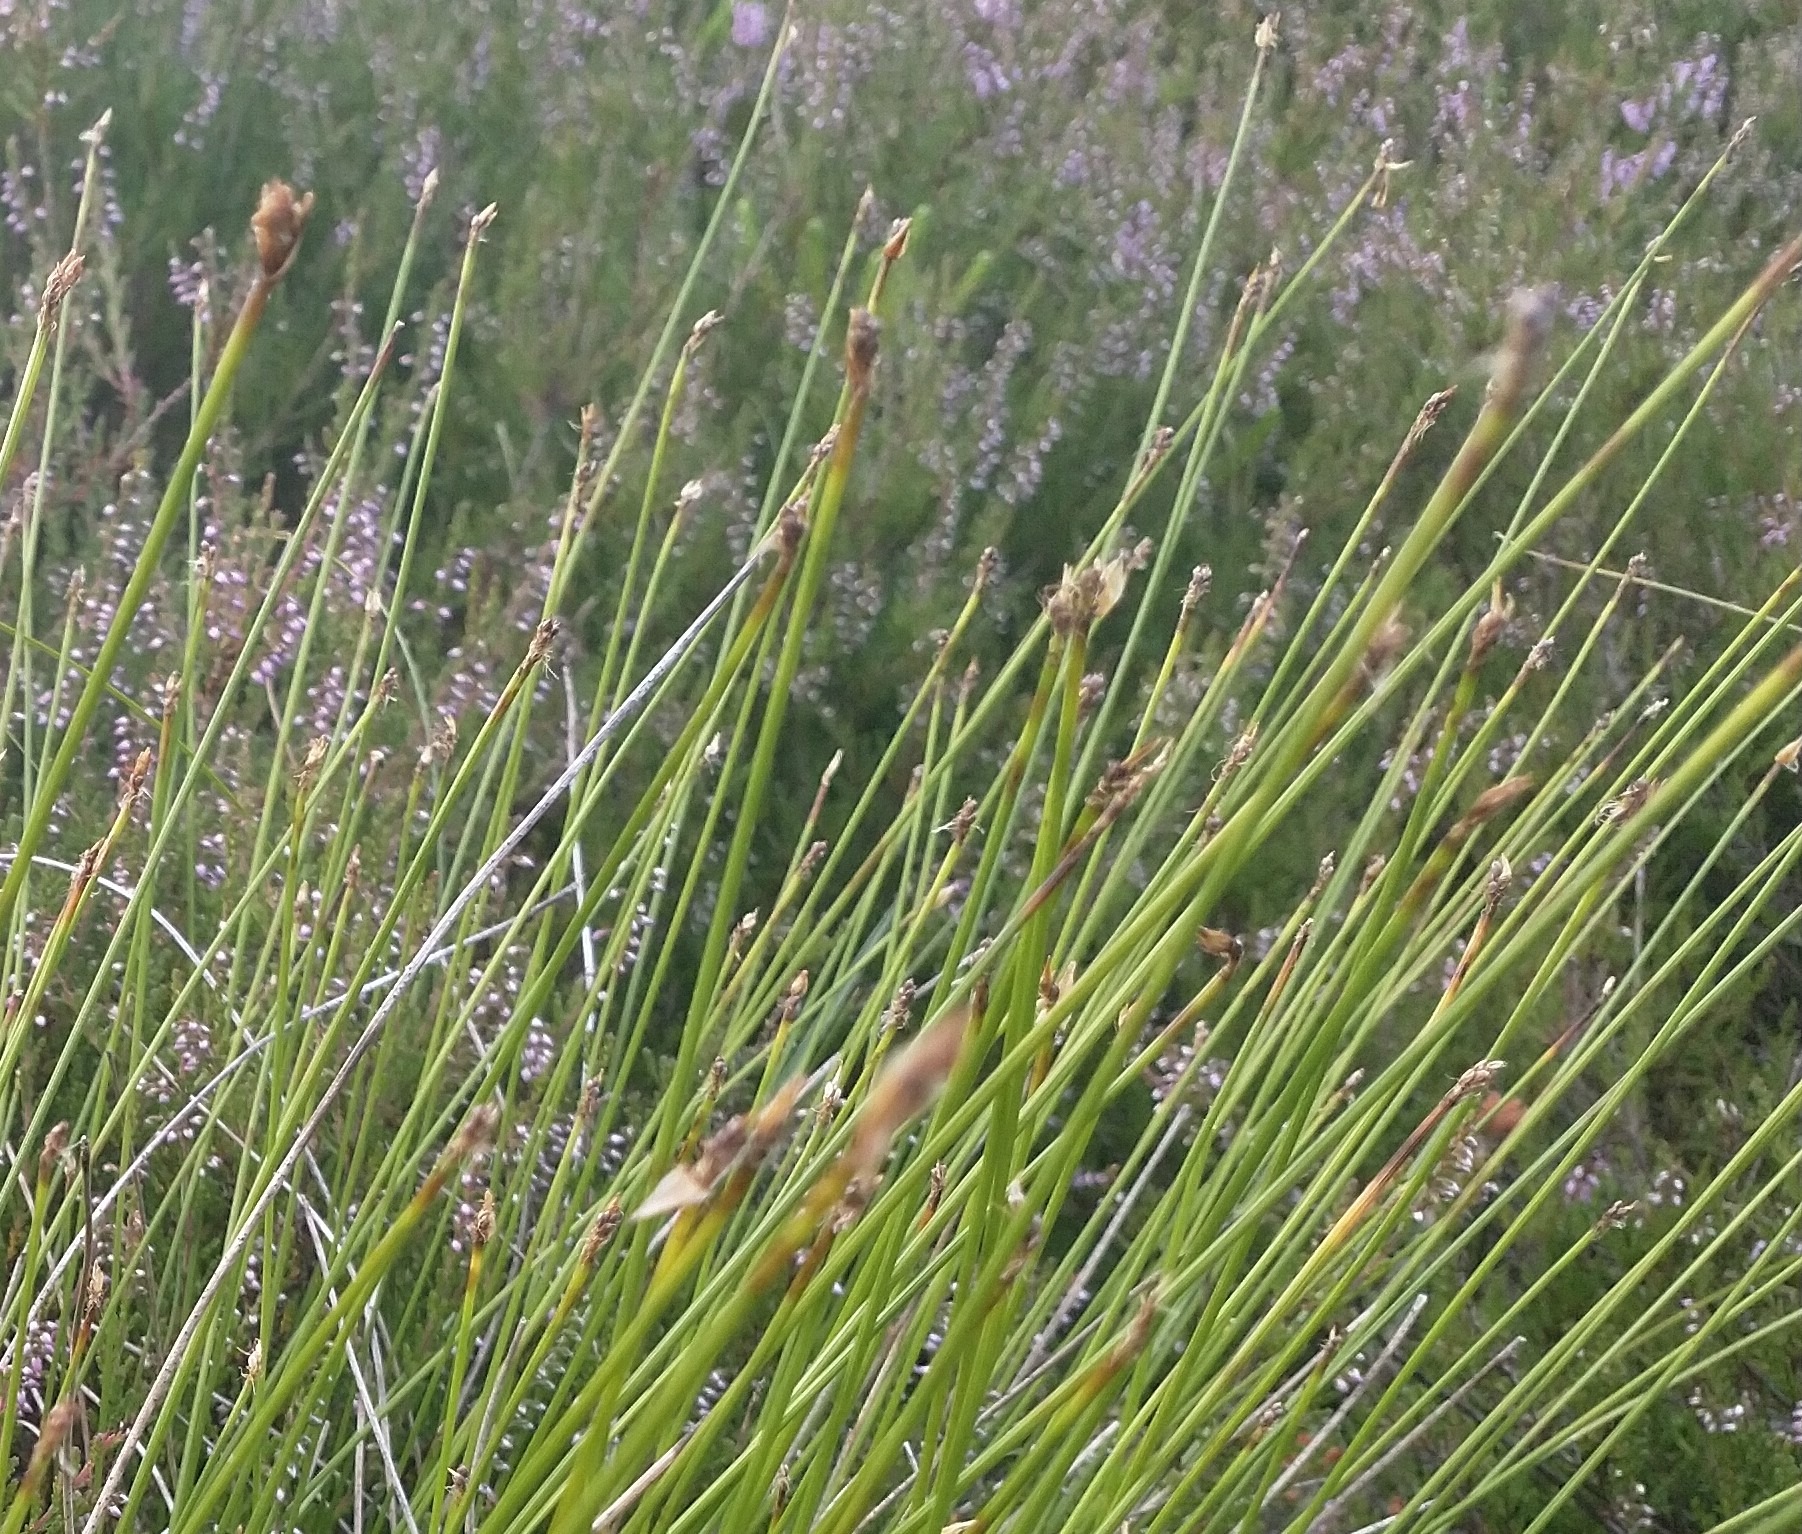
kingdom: Plantae
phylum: Tracheophyta
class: Liliopsida
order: Poales
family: Cyperaceae
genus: Trichophorum
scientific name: Trichophorum cespitosum
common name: Tuekogleaks
